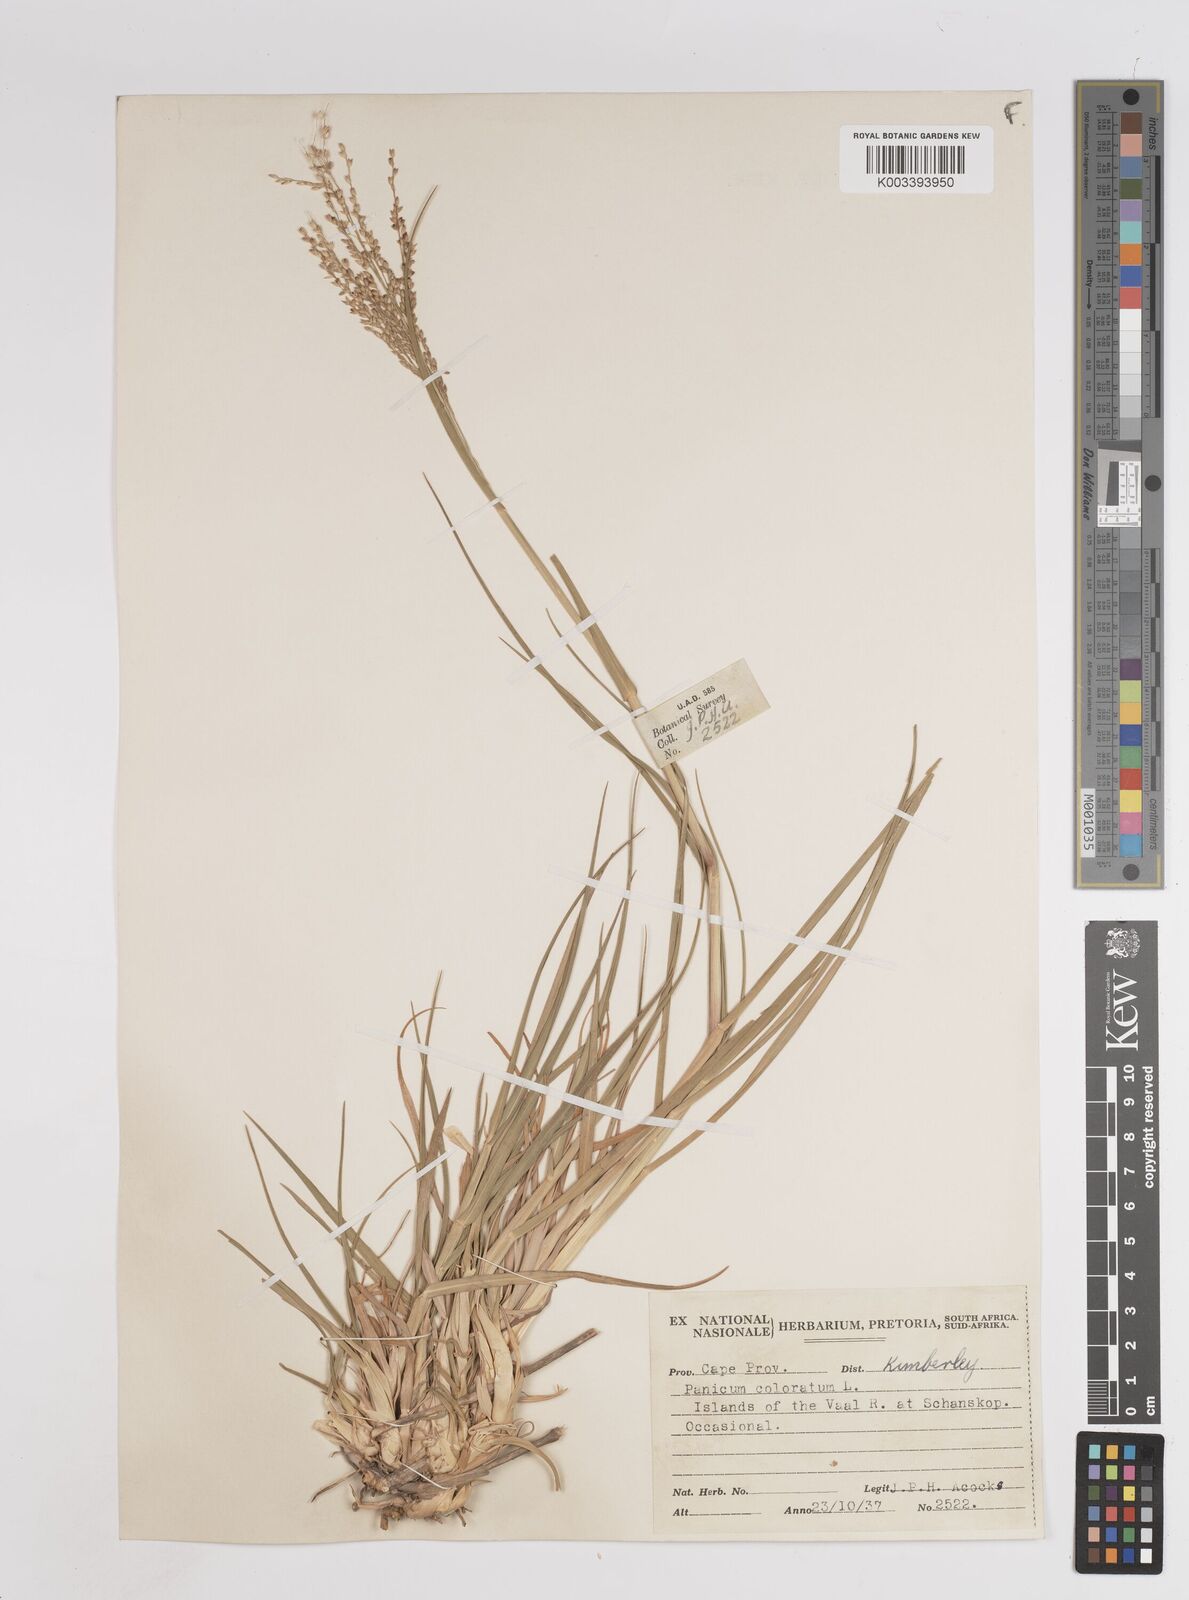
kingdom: Plantae
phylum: Tracheophyta
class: Liliopsida
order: Poales
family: Poaceae
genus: Panicum
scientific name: Panicum coloratum
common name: Kleingrass
